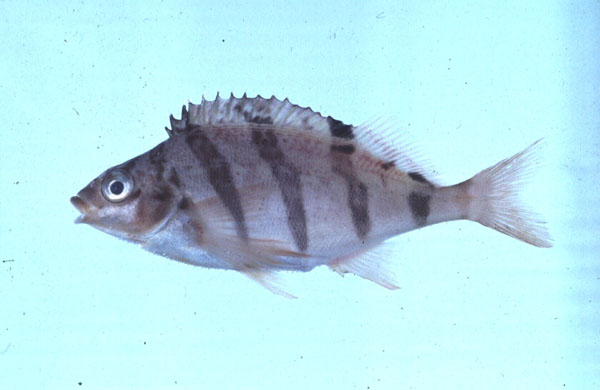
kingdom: Animalia
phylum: Chordata
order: Perciformes
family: Cheilodactylidae
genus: Cheilodactylus
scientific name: Cheilodactylus pixi
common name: Barred fingerfin
